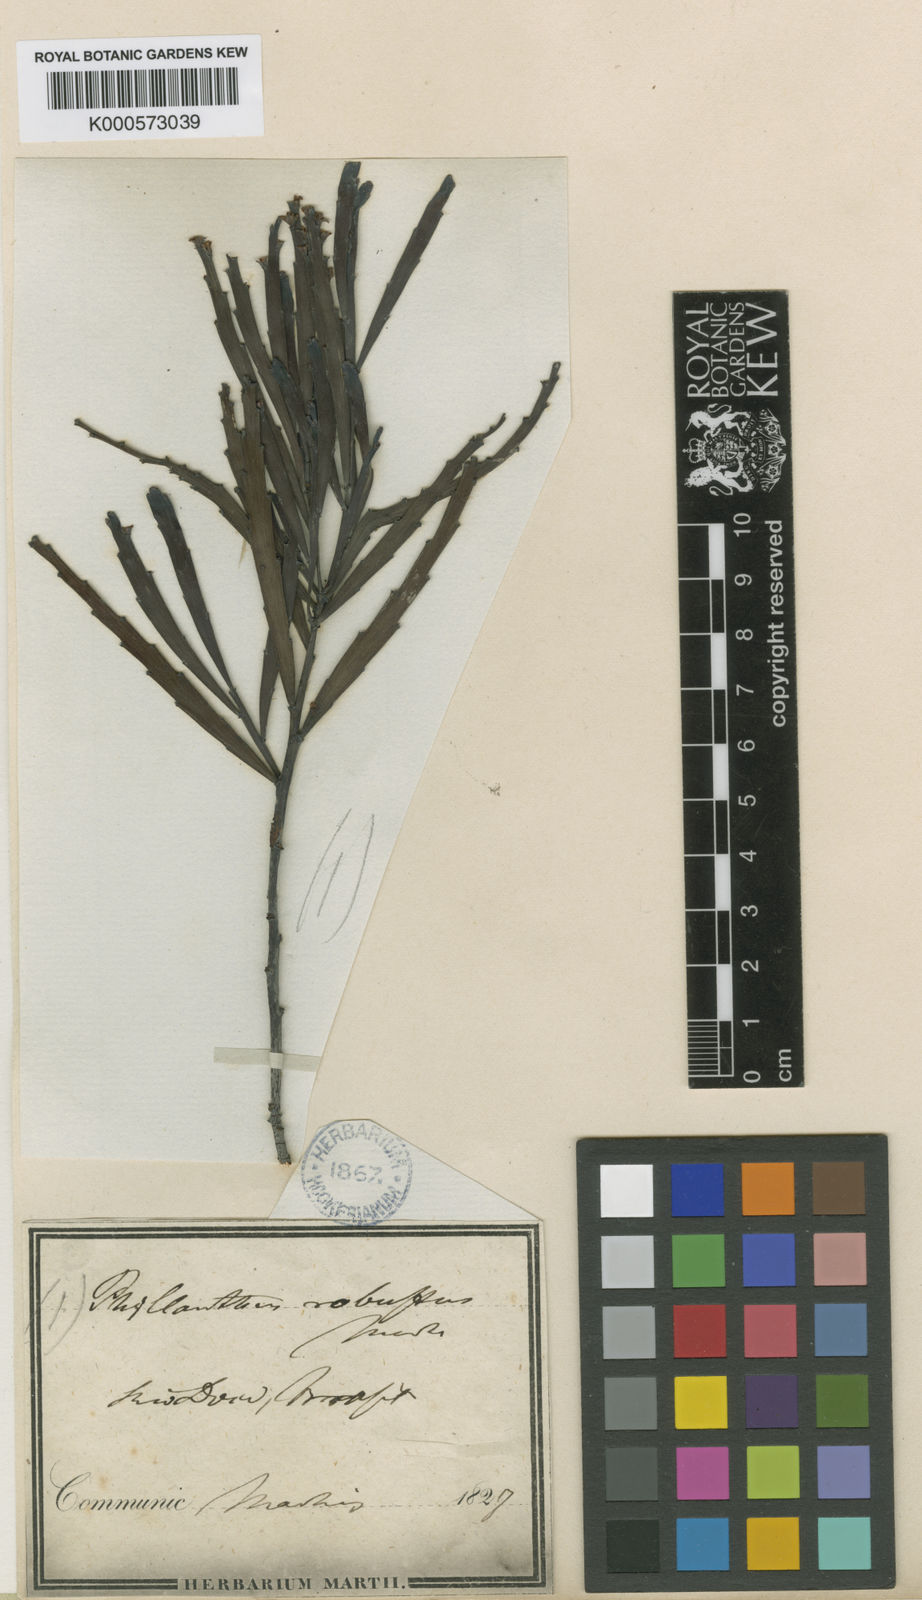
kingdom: Plantae
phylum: Tracheophyta
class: Magnoliopsida
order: Malpighiales
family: Phyllanthaceae
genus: Phyllanthus
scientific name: Phyllanthus
